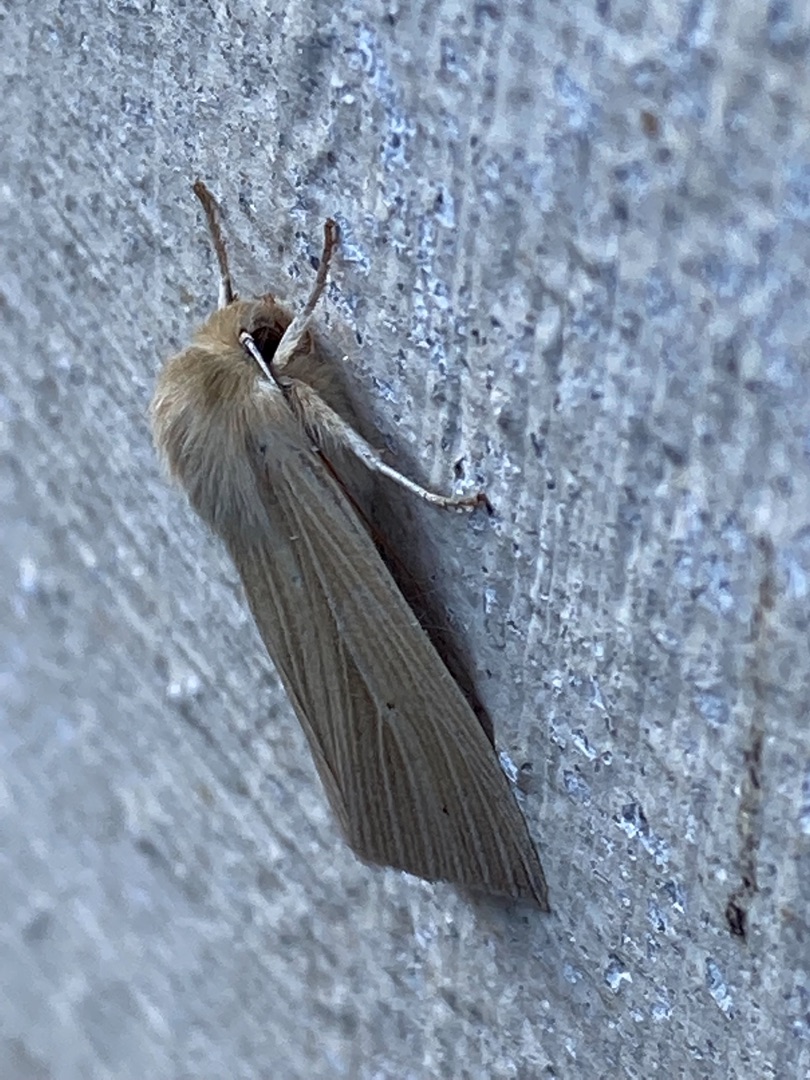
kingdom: Animalia
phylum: Arthropoda
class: Insecta
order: Lepidoptera
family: Noctuidae
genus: Mythimna
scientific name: Mythimna pallens
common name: Halmugle
